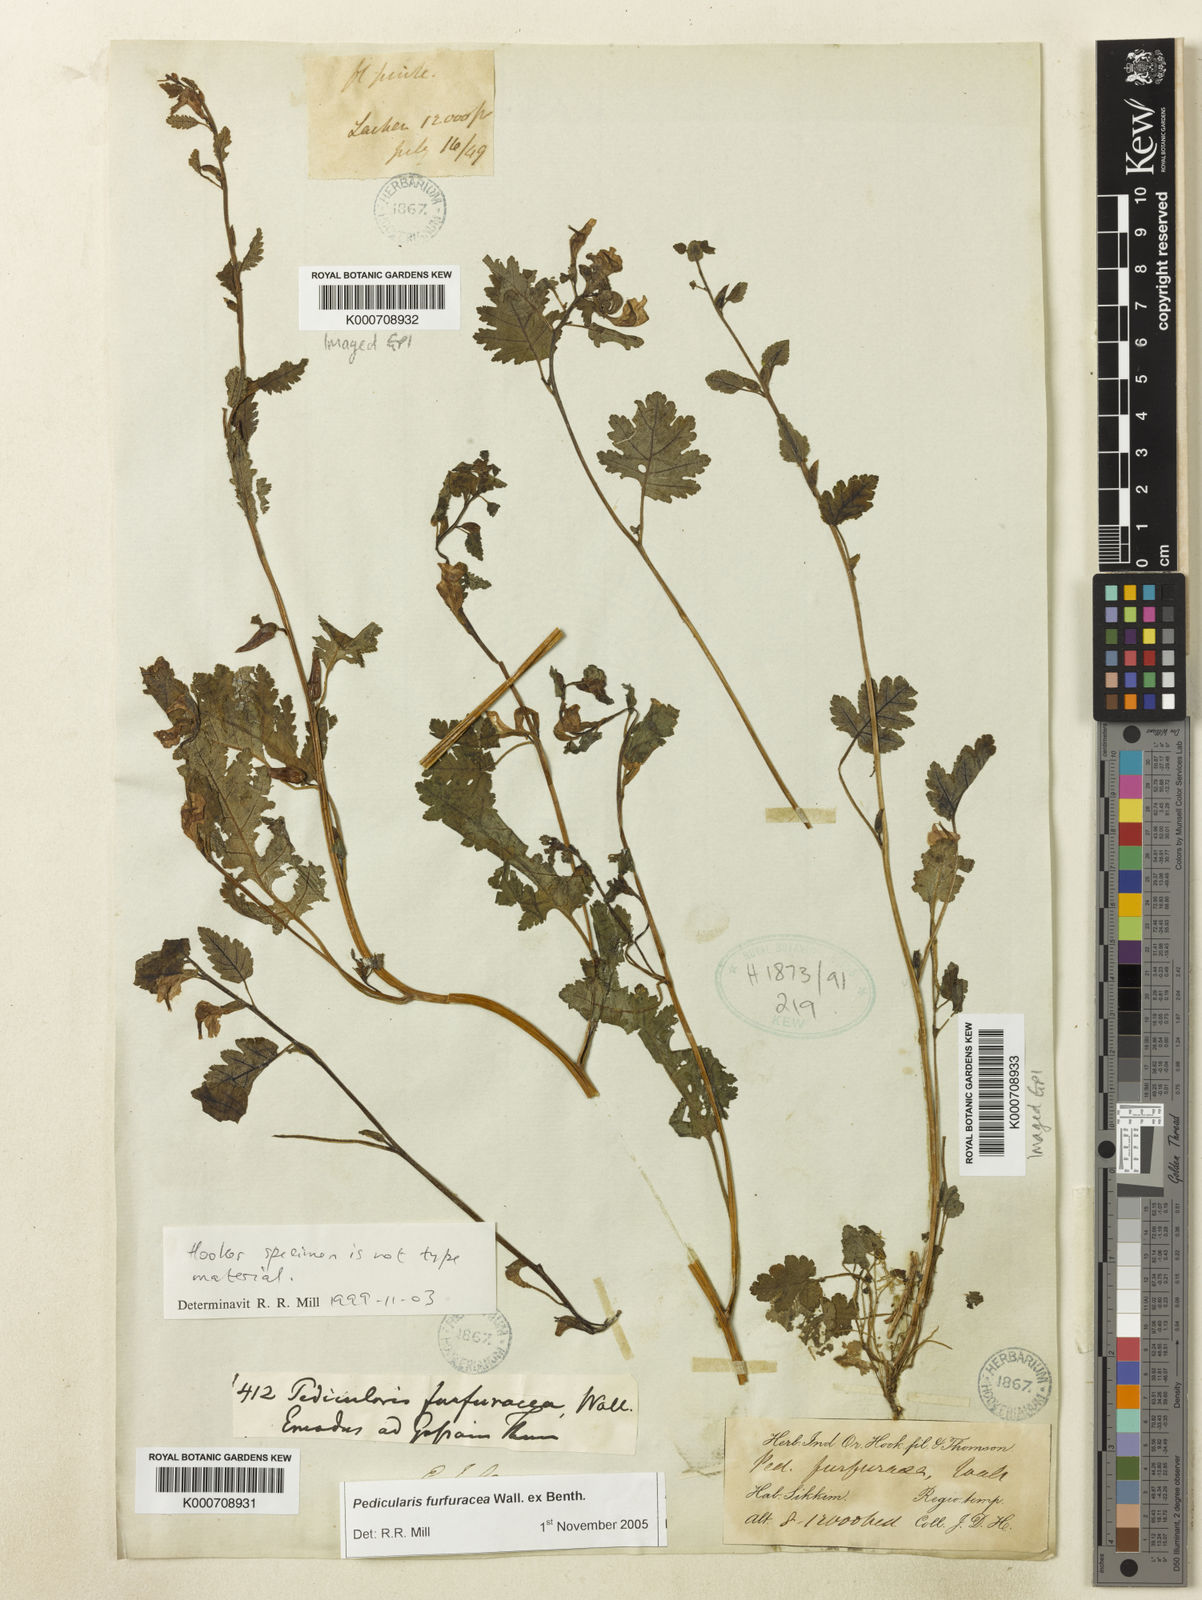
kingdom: Plantae
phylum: Tracheophyta
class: Magnoliopsida
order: Lamiales
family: Orobanchaceae
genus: Pedicularis
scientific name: Pedicularis
